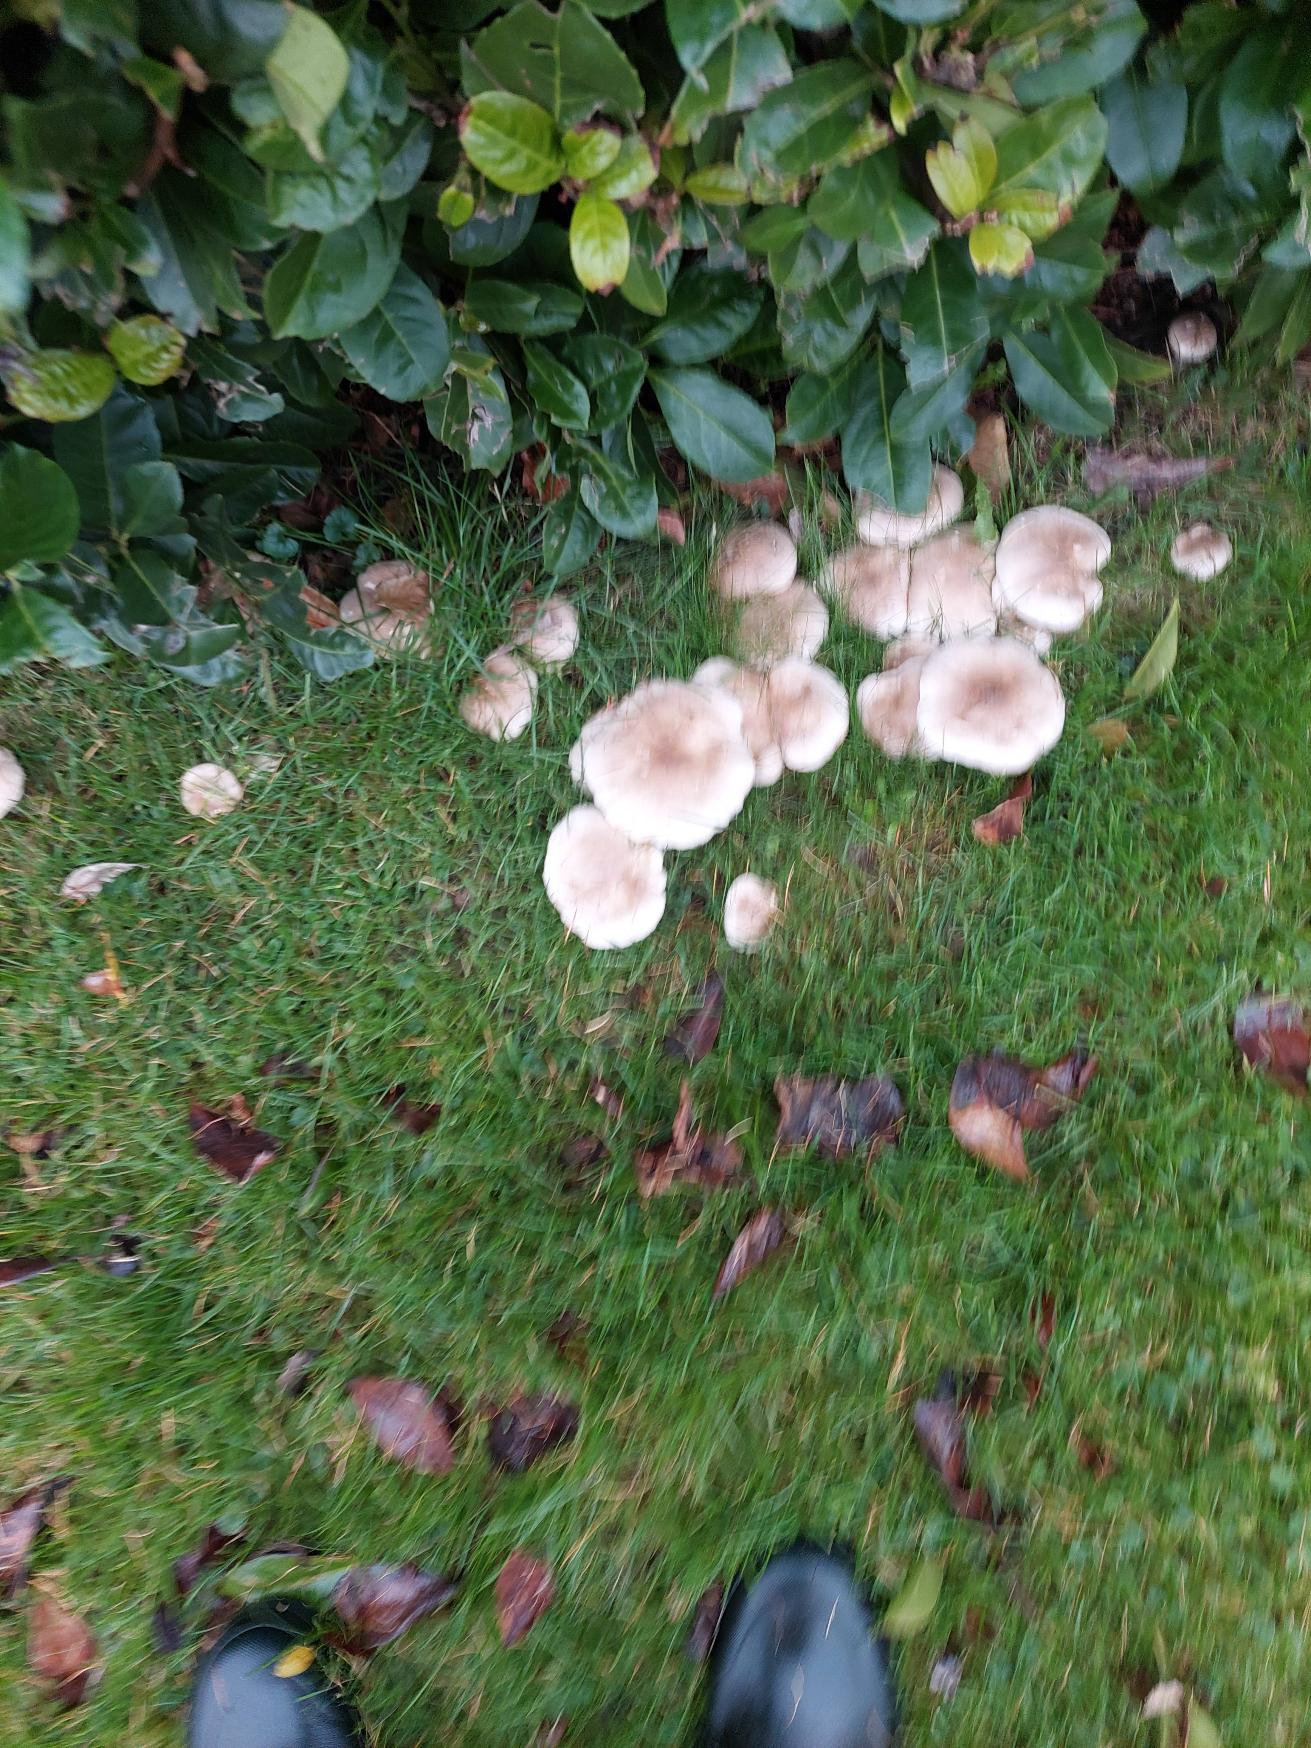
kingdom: Fungi
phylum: Basidiomycota
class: Agaricomycetes
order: Agaricales
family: Tricholomataceae
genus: Clitocybe
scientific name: Clitocybe nebularis
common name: Tåge-tragthat
